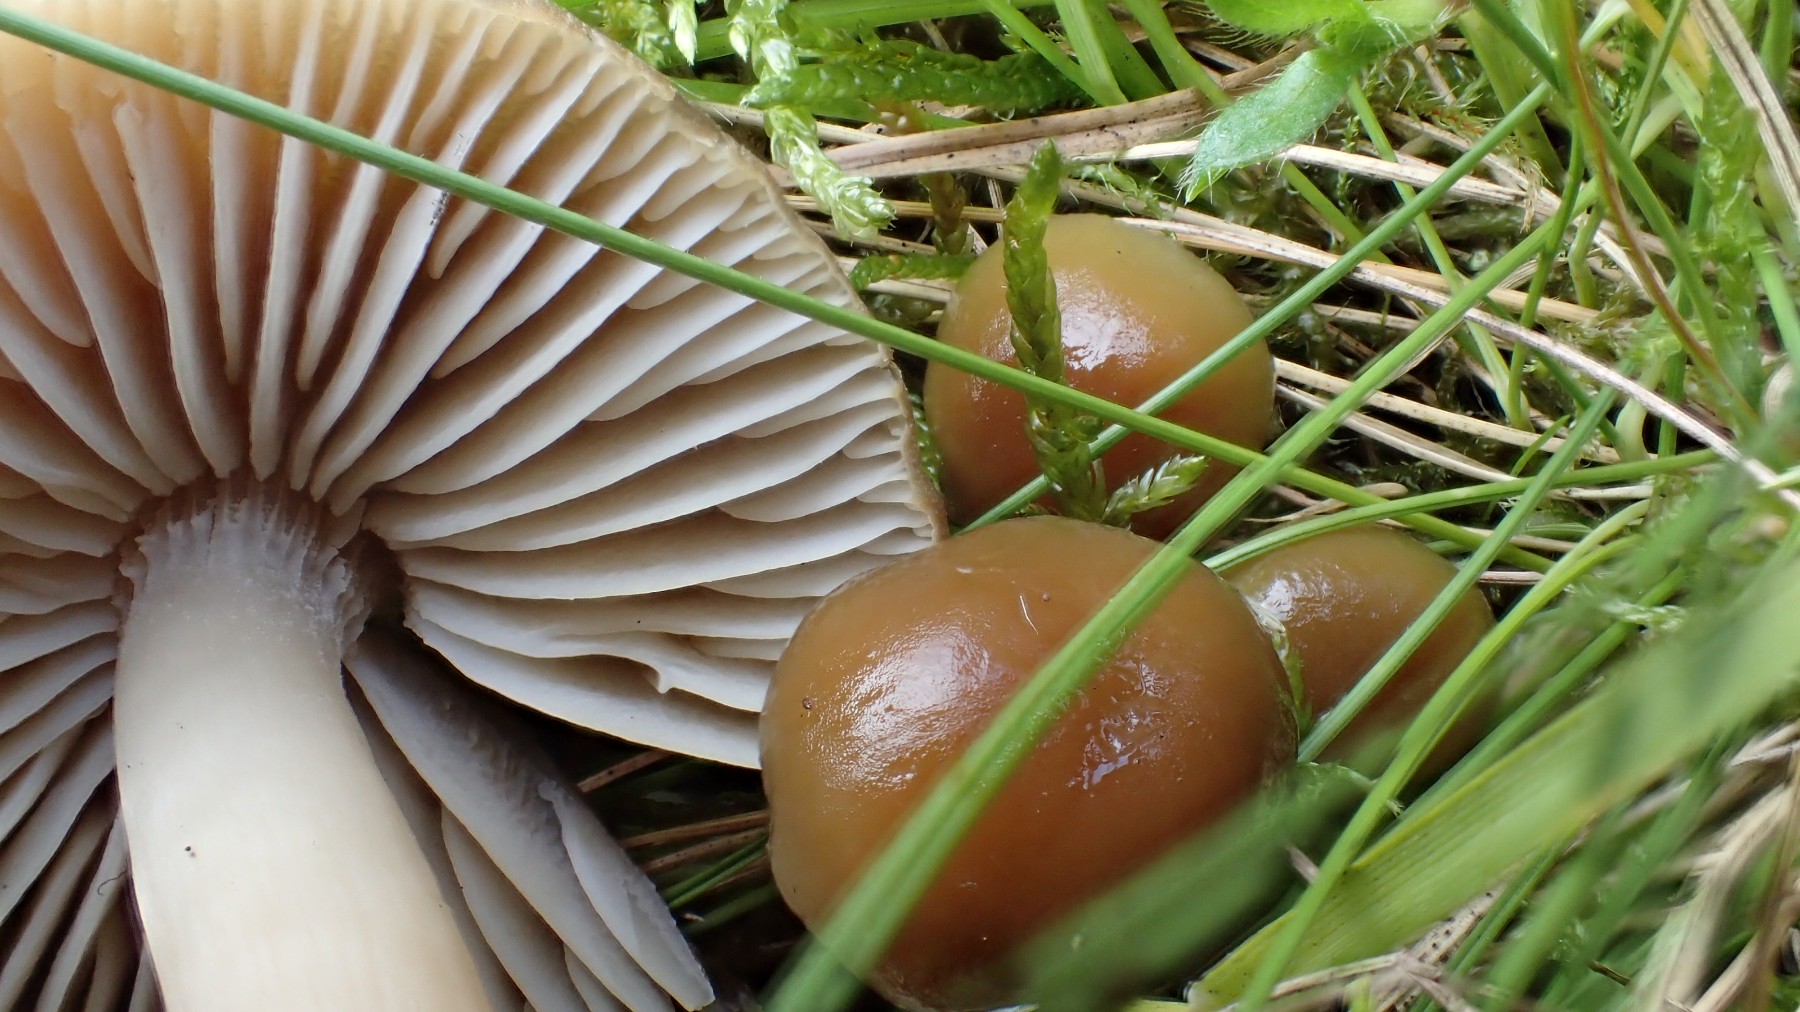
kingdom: Fungi
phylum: Basidiomycota
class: Agaricomycetes
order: Agaricales
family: Hygrophoraceae
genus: Neohygrocybe
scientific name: Neohygrocybe nitrata
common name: stinkende vokshat
